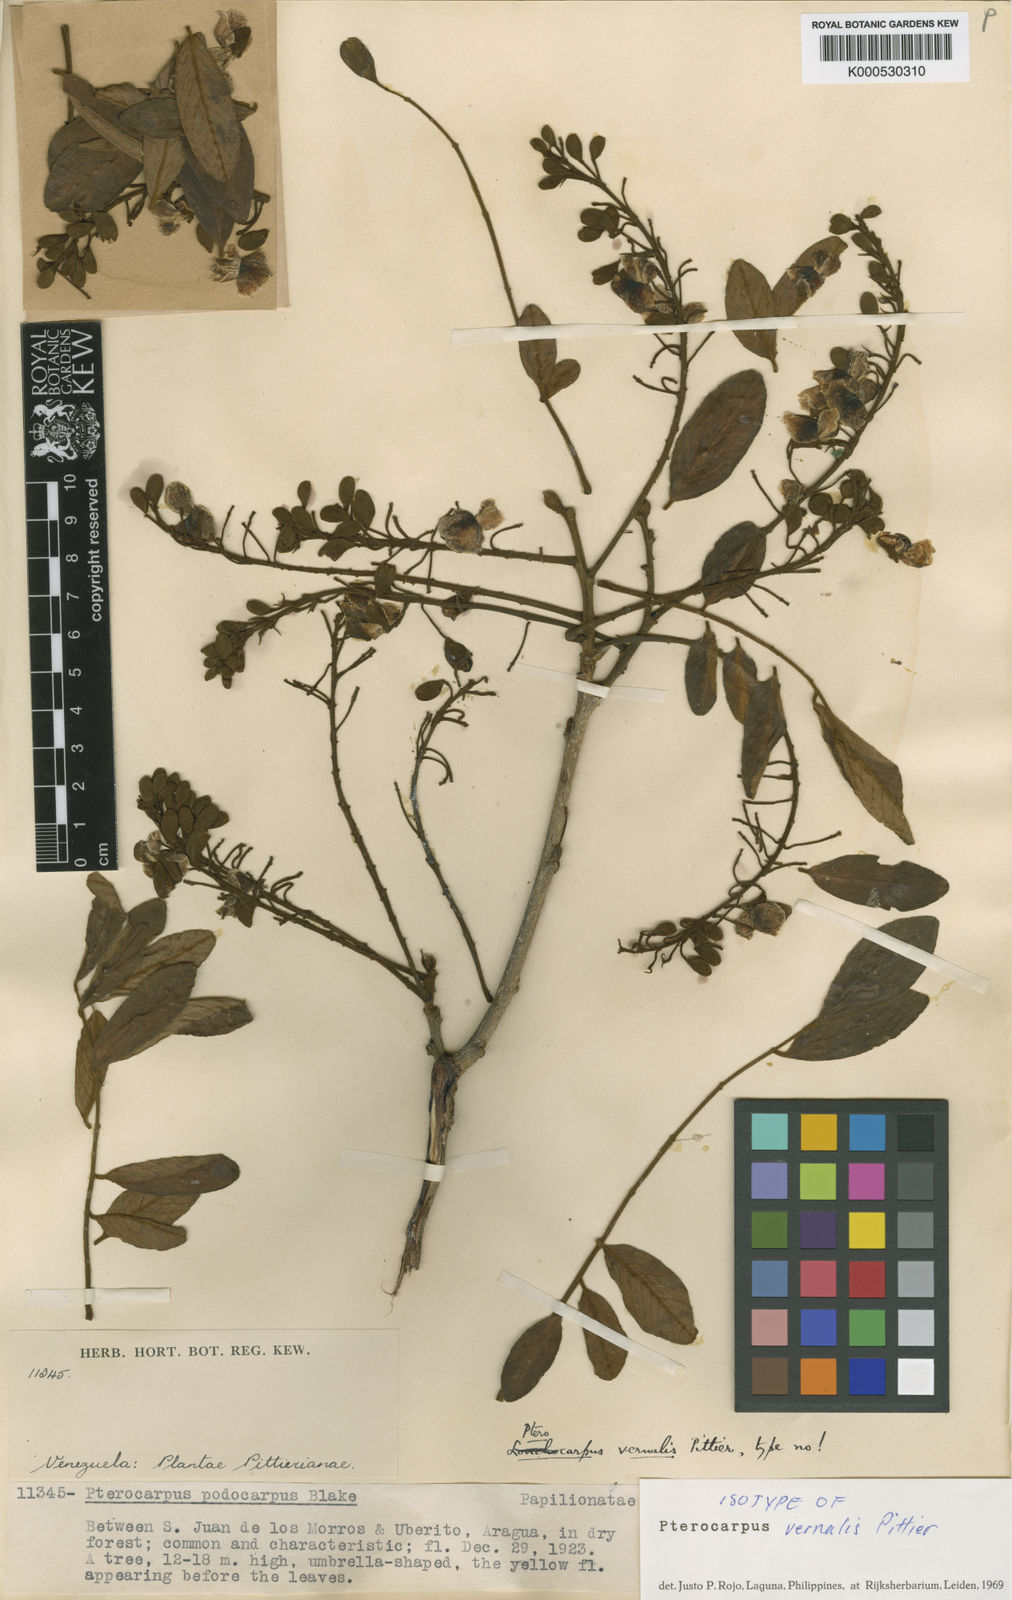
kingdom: Plantae
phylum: Tracheophyta
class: Magnoliopsida
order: Fabales
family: Fabaceae
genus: Pterocarpus
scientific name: Pterocarpus officinalis
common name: Bloodwood
